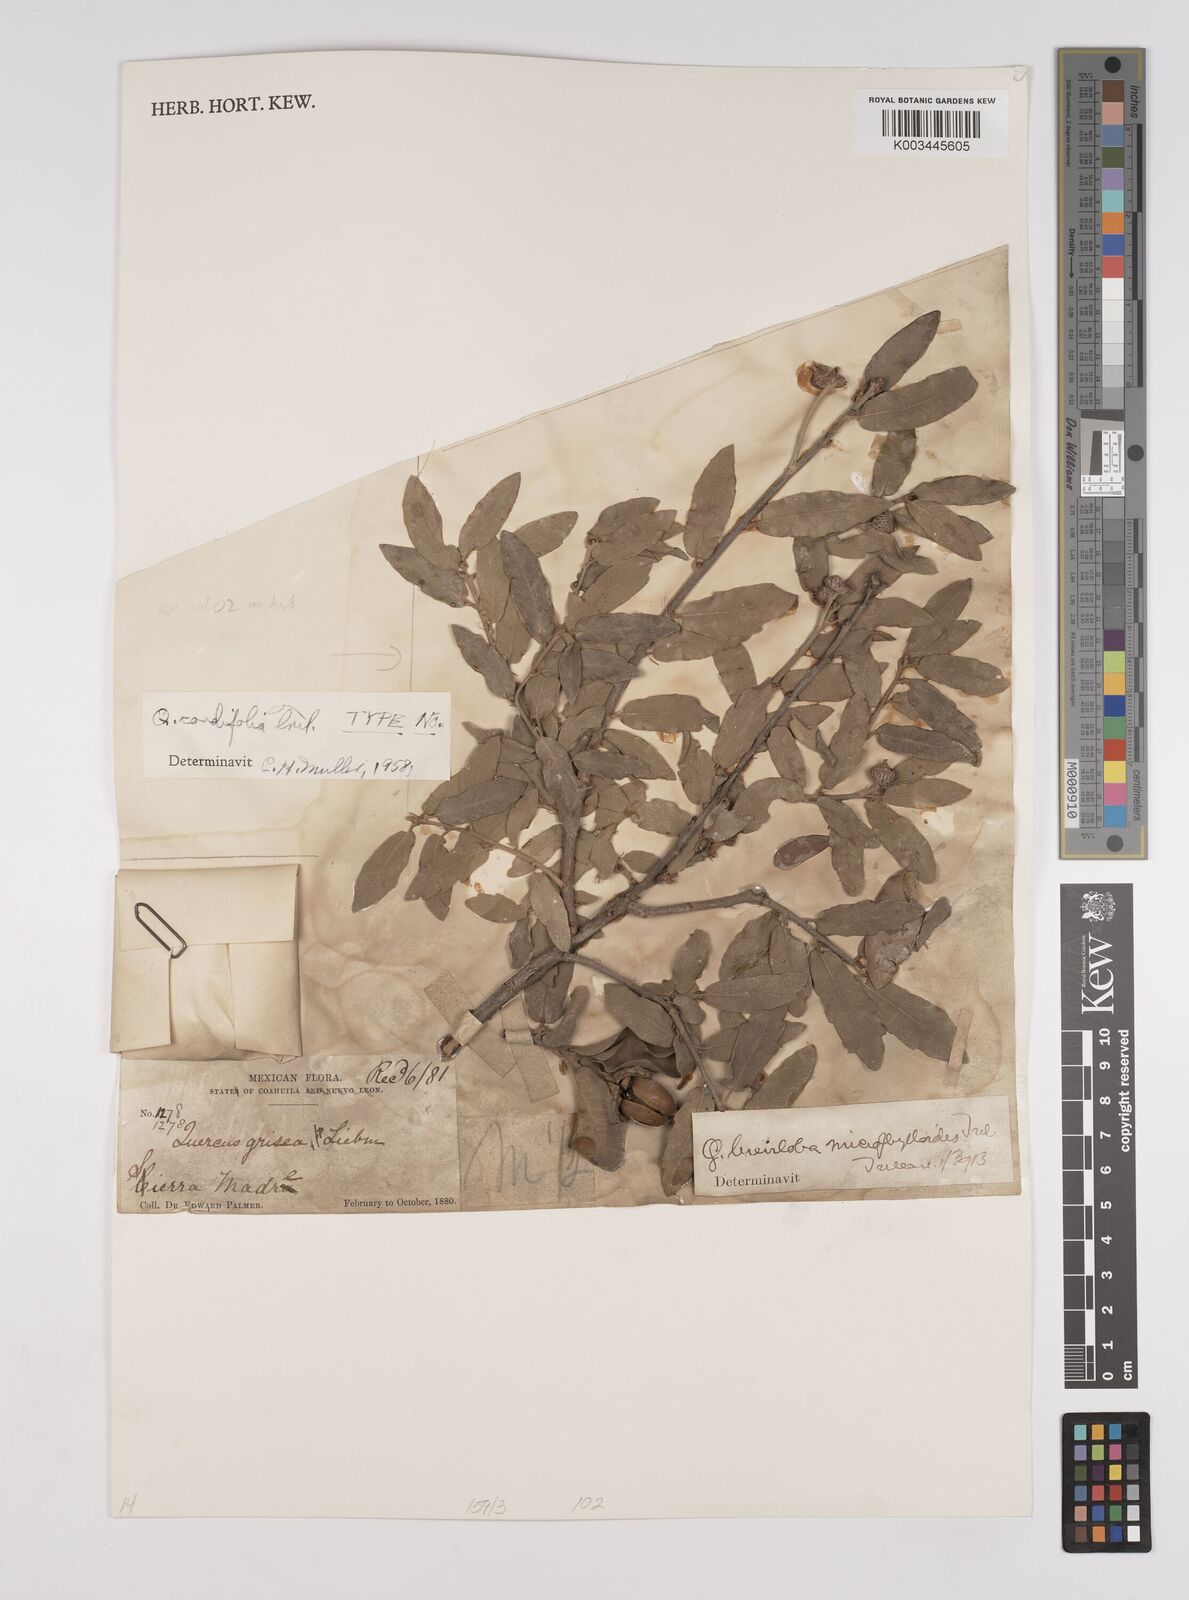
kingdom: Plantae
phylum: Tracheophyta
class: Magnoliopsida
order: Fagales
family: Fagaceae
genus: Quercus
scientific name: Quercus striatula
